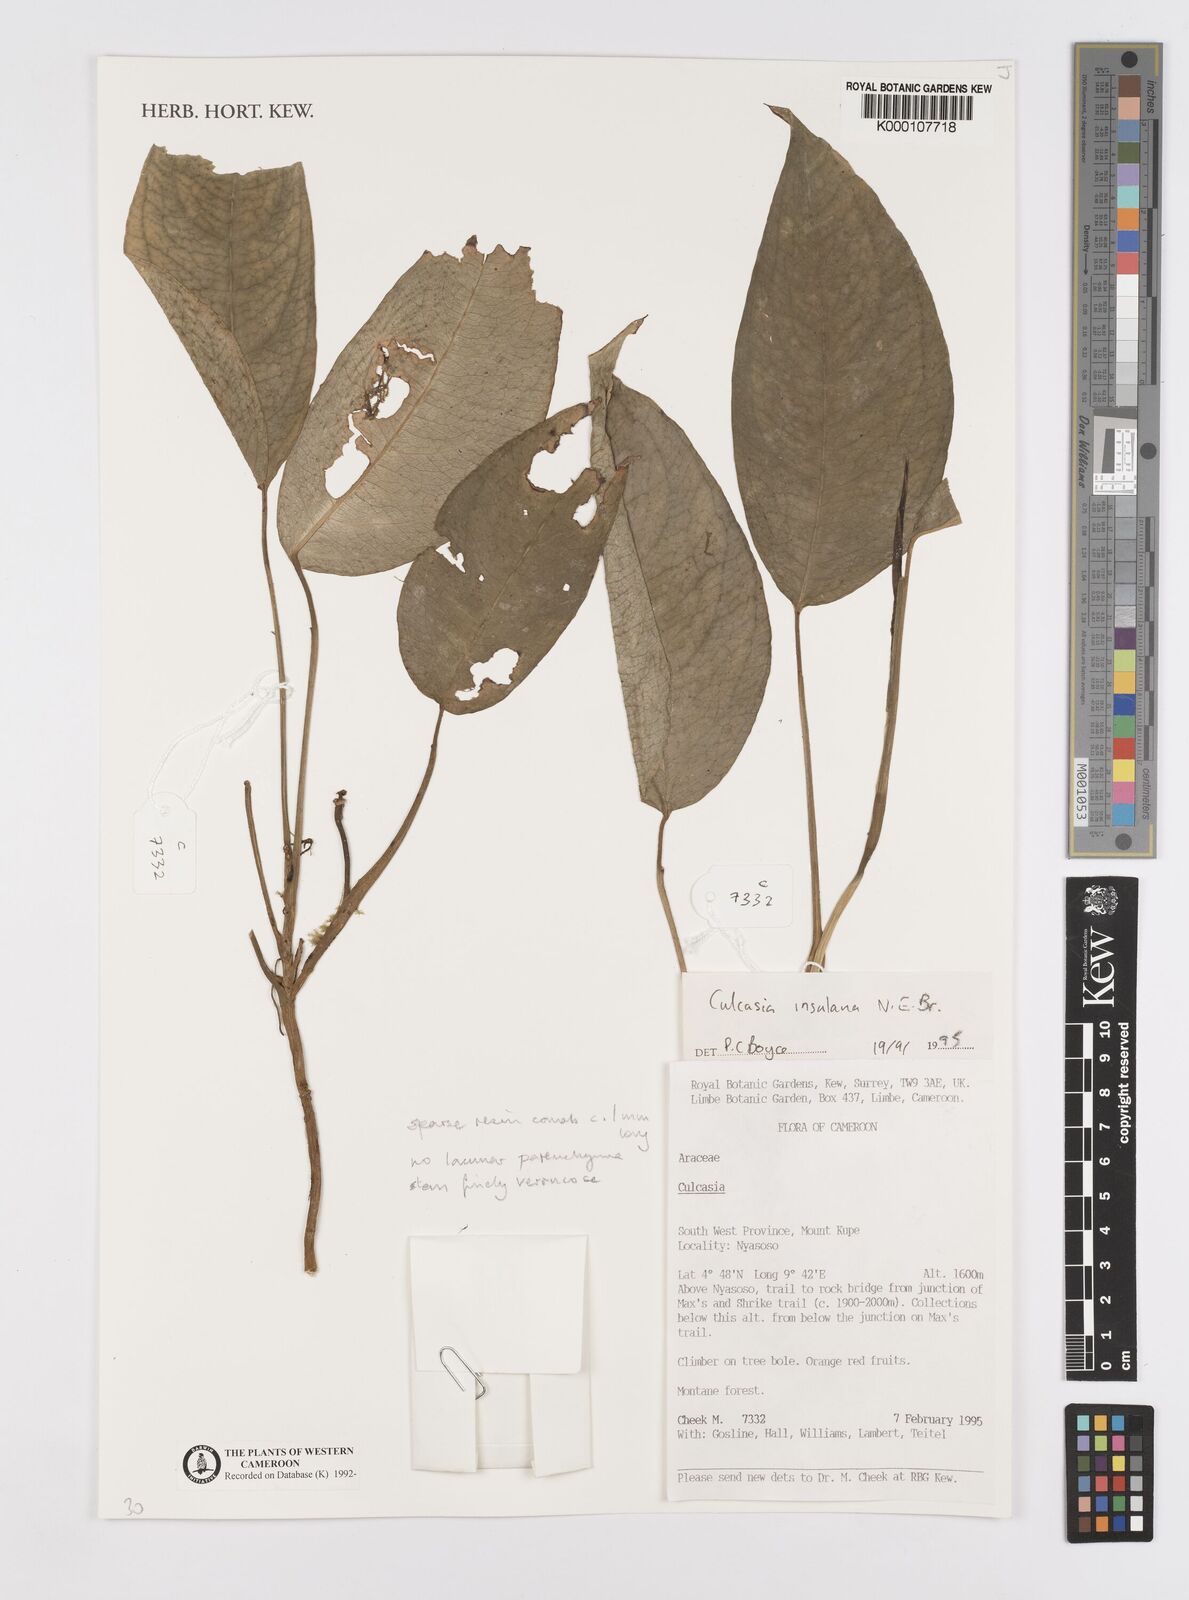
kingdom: Plantae
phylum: Tracheophyta
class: Liliopsida
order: Alismatales
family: Araceae
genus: Culcasia
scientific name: Culcasia insulana
